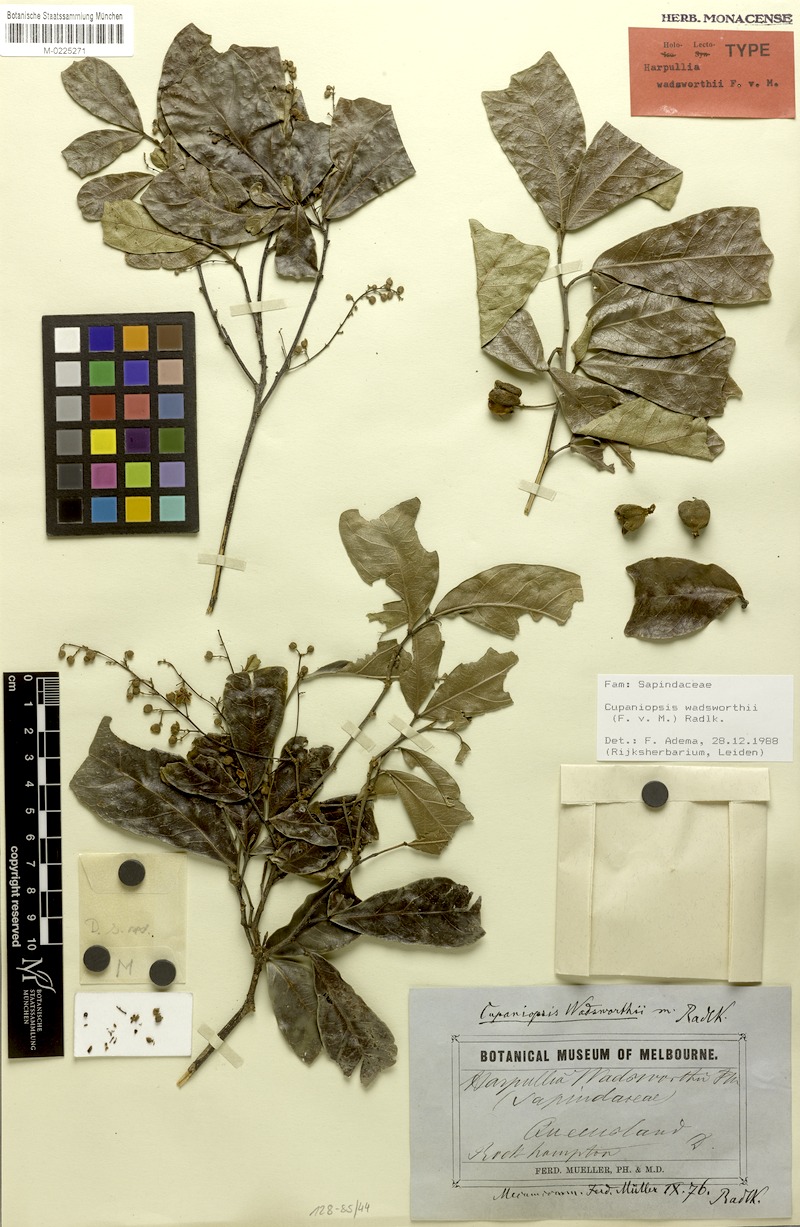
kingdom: Plantae
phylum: Tracheophyta
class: Magnoliopsida
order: Sapindales
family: Sapindaceae
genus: Cupaniopsis
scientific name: Cupaniopsis wadsworthii
